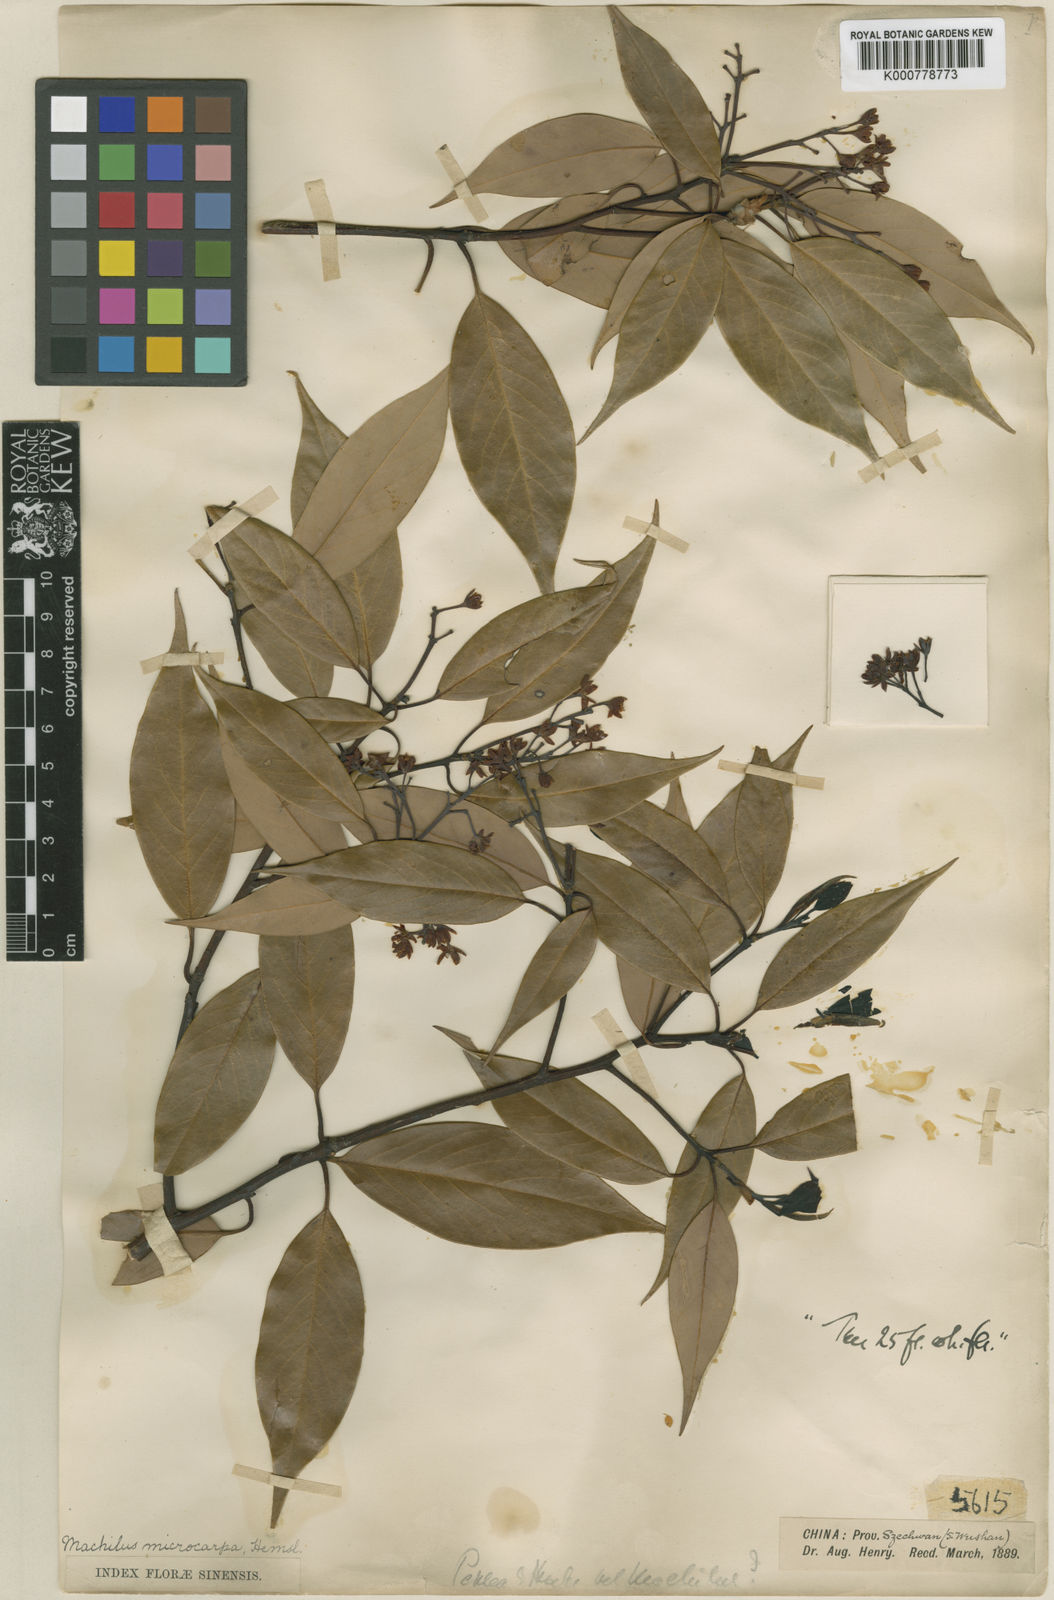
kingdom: Plantae
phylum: Tracheophyta
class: Magnoliopsida
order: Laurales
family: Lauraceae
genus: Machilus
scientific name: Machilus microcarpa
